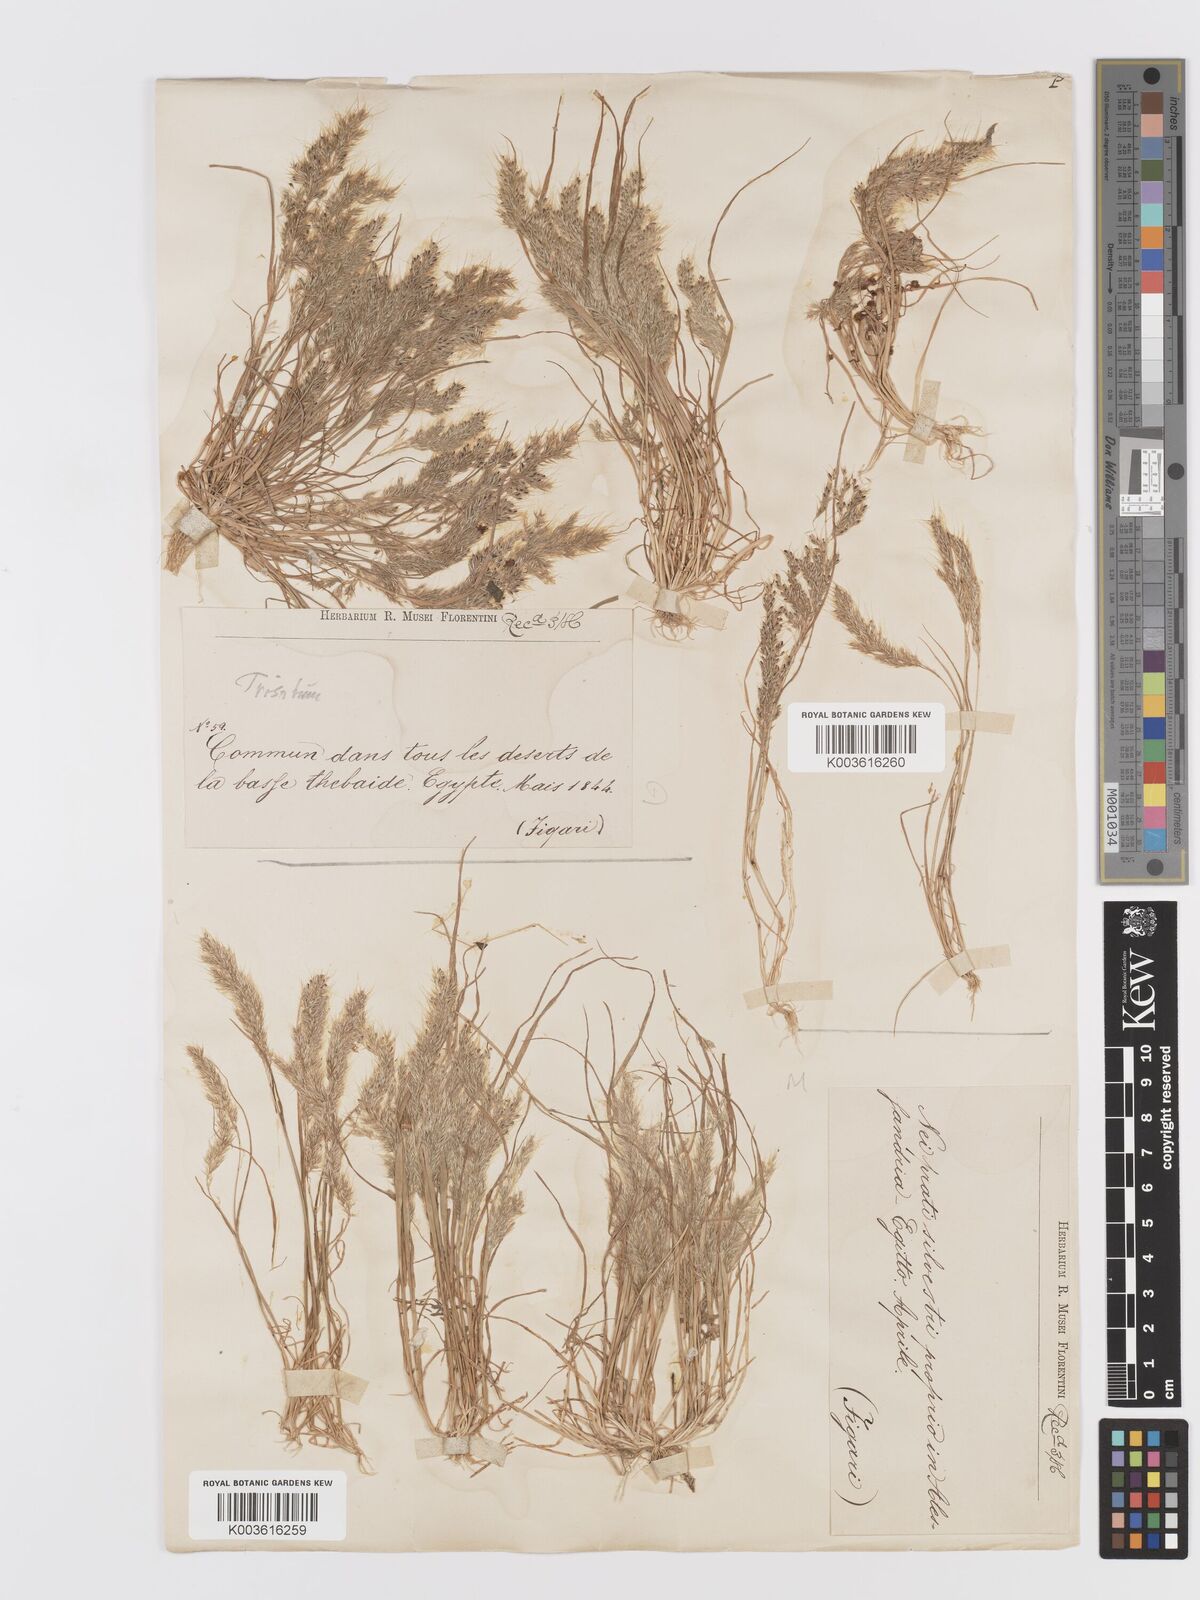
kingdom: Plantae
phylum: Tracheophyta
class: Liliopsida
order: Poales
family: Poaceae
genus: Trisetaria
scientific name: Trisetaria macrochaeta
